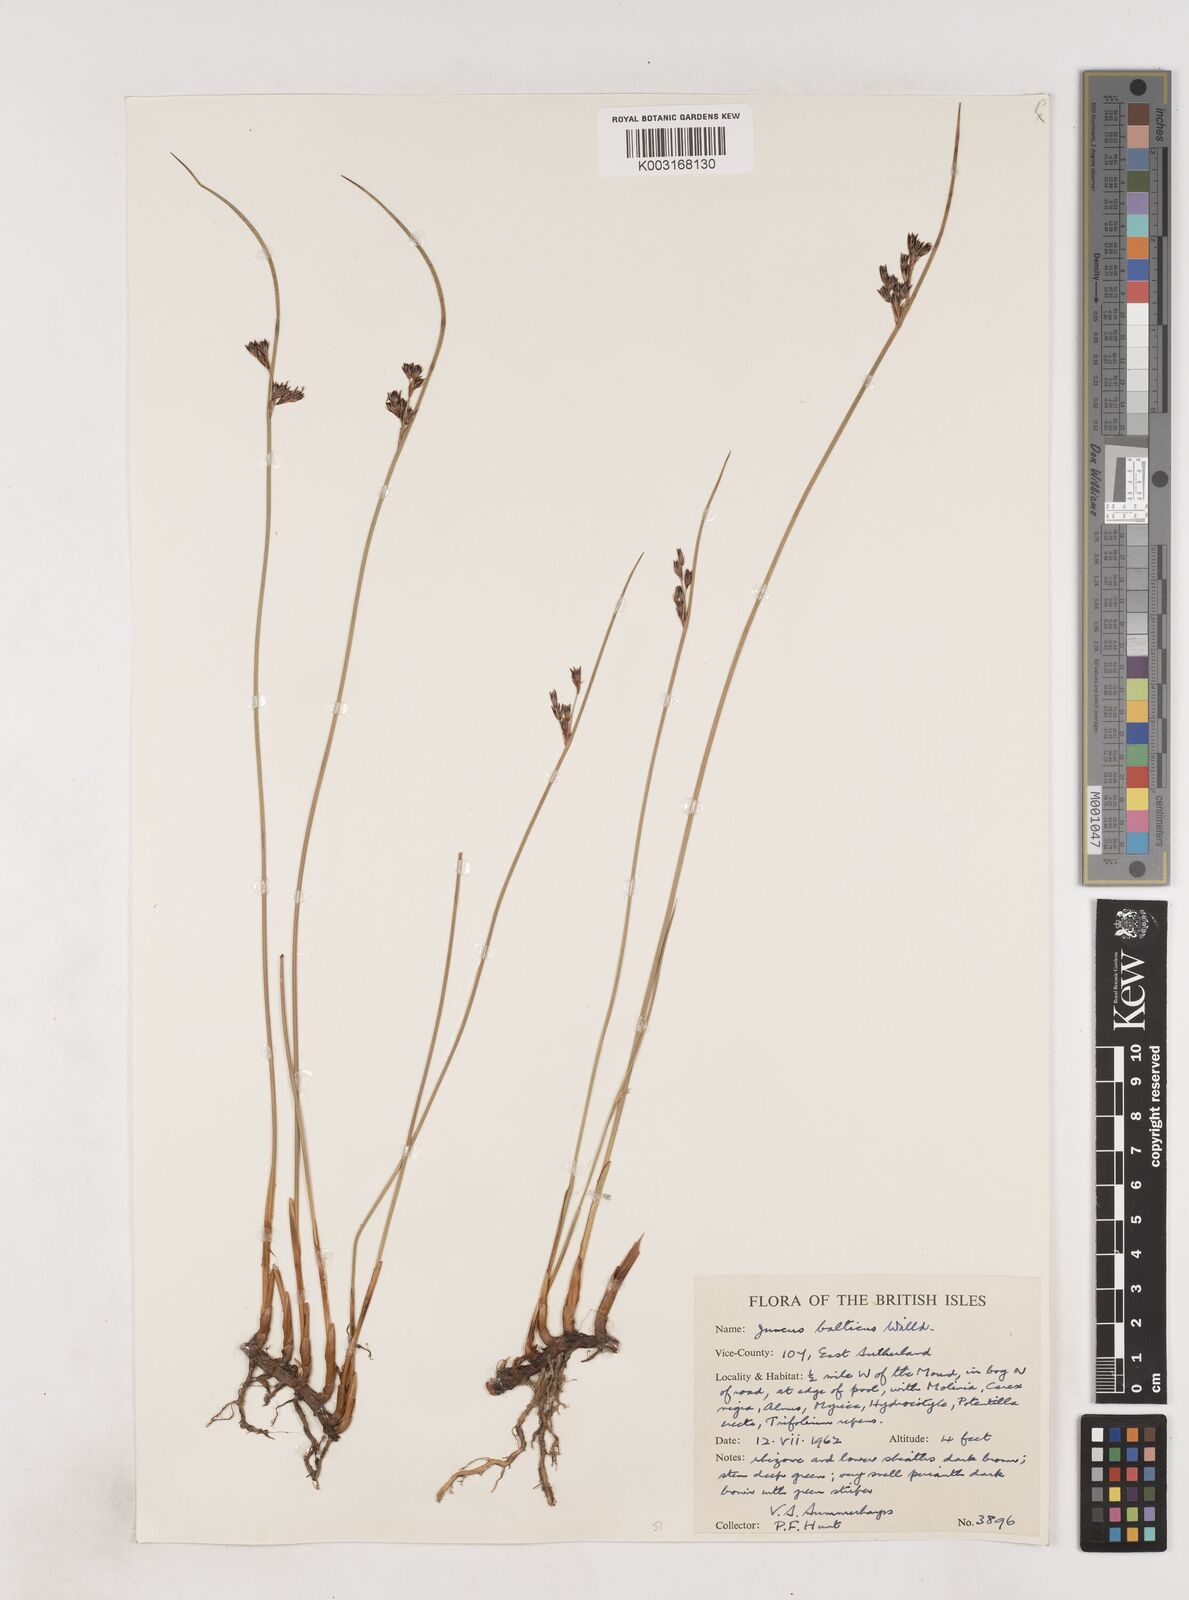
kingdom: Plantae
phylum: Tracheophyta
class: Liliopsida
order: Poales
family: Juncaceae
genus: Juncus
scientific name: Juncus balticus
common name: Baltic rush
